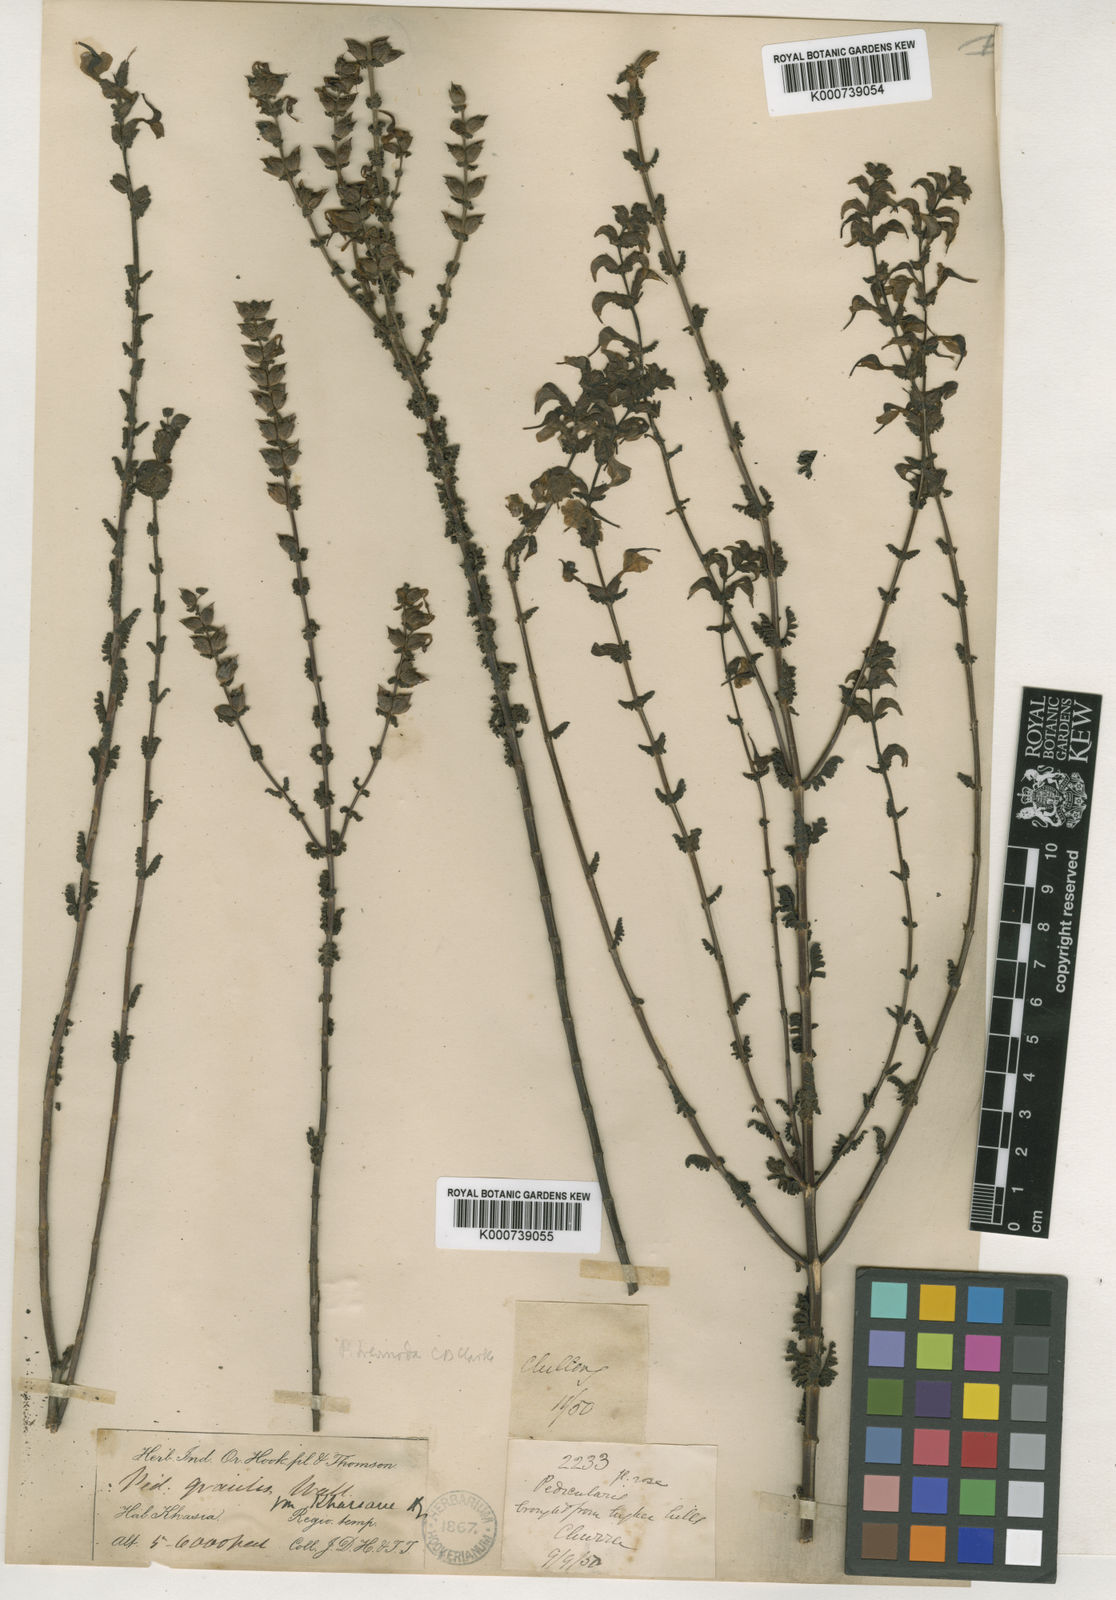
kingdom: Plantae
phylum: Tracheophyta
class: Magnoliopsida
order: Lamiales
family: Orobanchaceae
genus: Pedicularis
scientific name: Pedicularis
